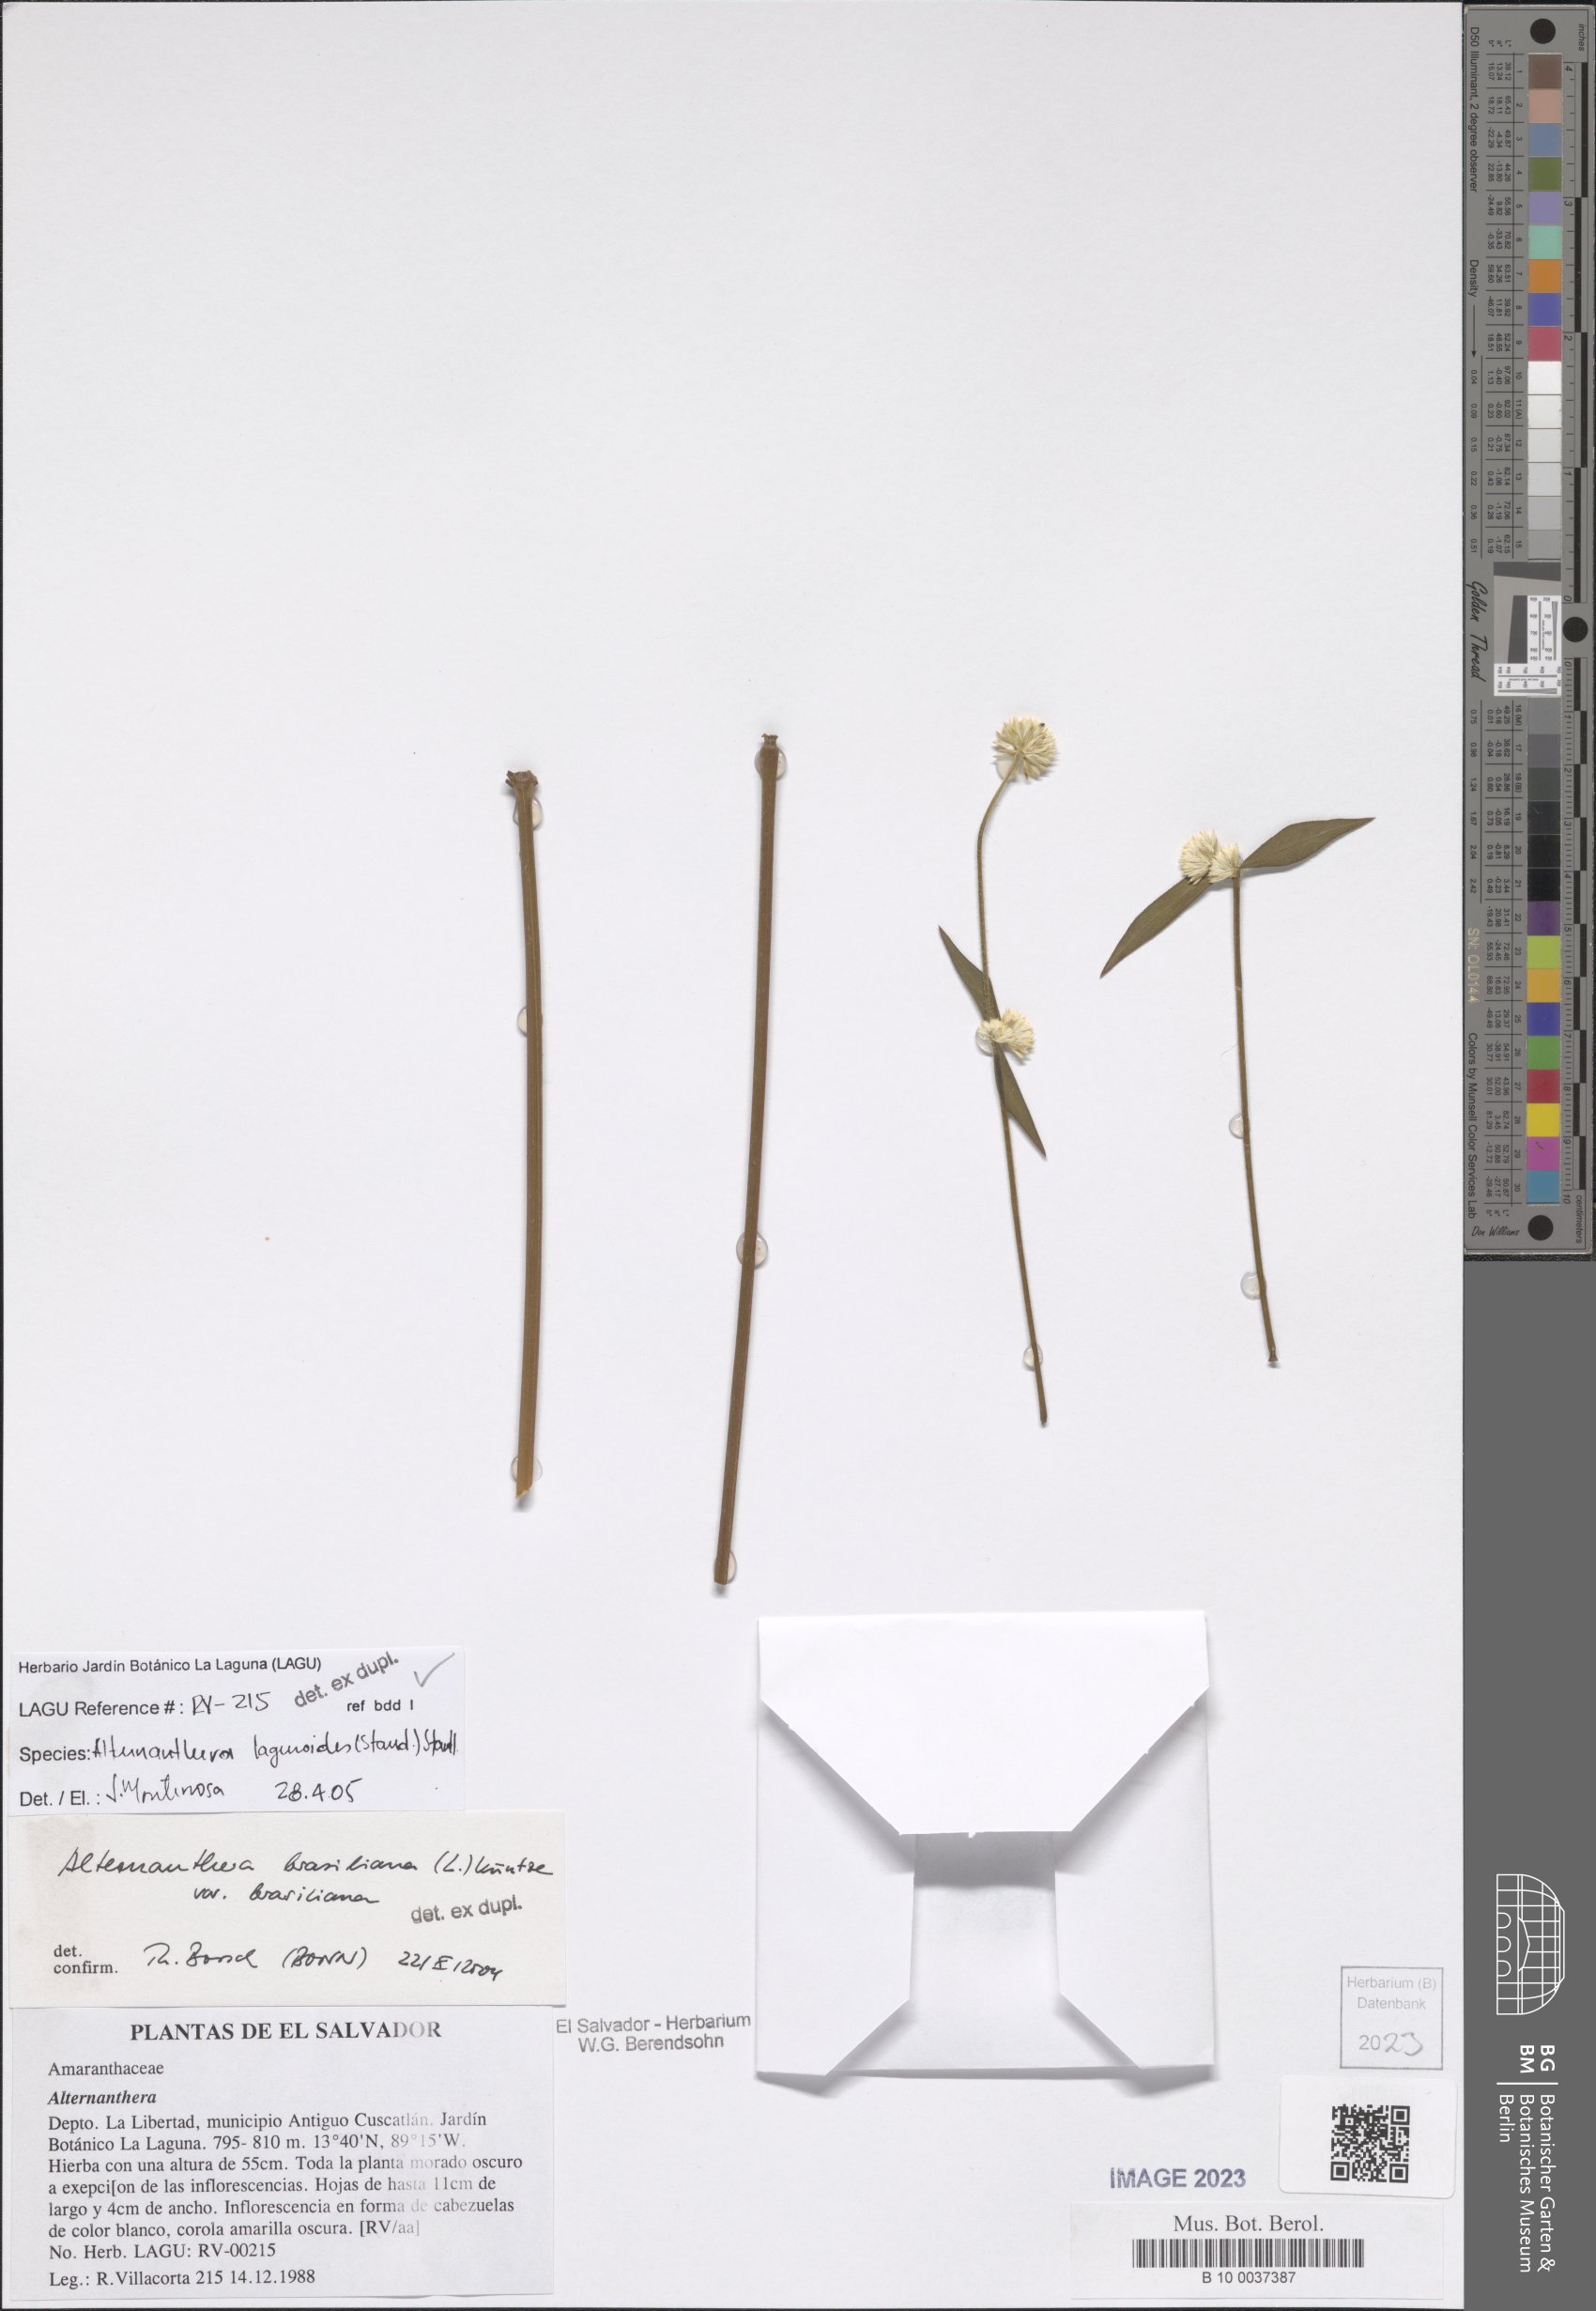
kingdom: Plantae
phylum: Tracheophyta
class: Magnoliopsida
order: Caryophyllales
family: Amaranthaceae
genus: Alternanthera
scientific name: Alternanthera laguroides
